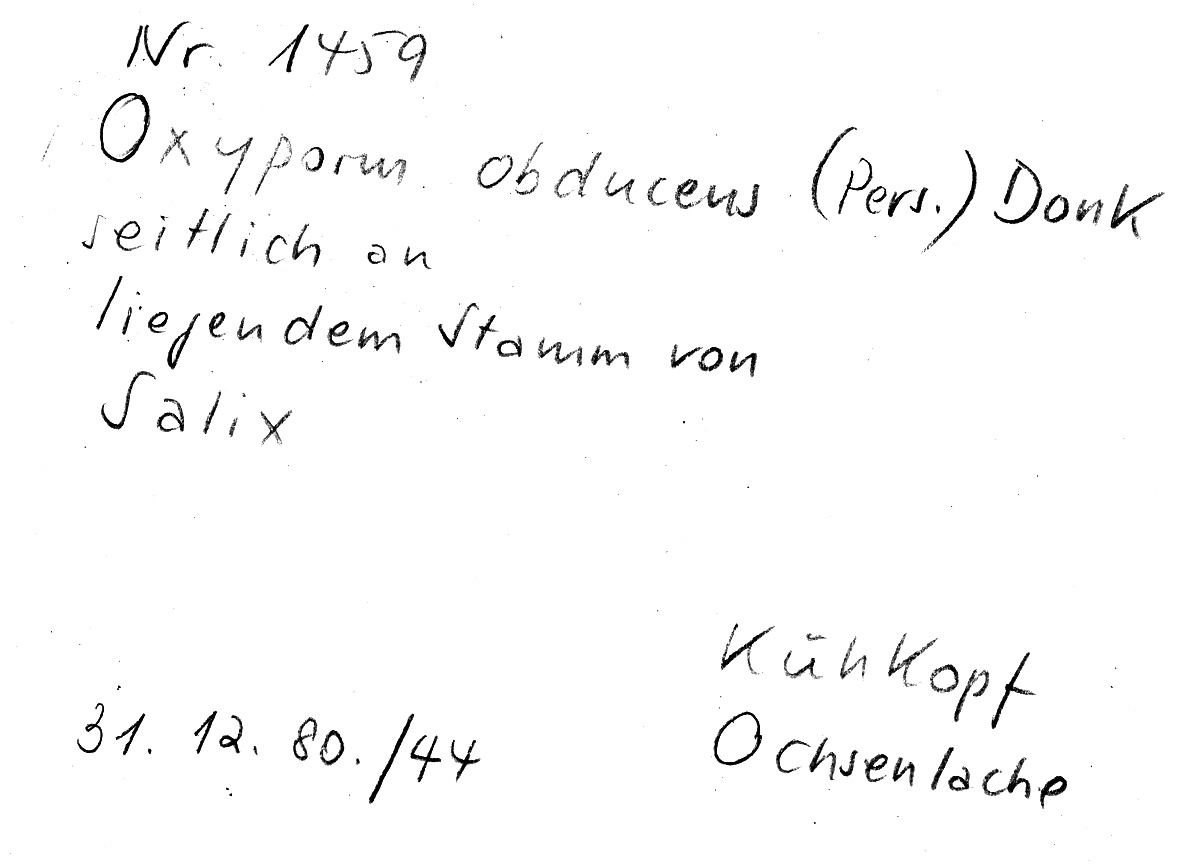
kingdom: Plantae
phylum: Tracheophyta
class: Magnoliopsida
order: Malpighiales
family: Salicaceae
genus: Salix
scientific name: Salix
